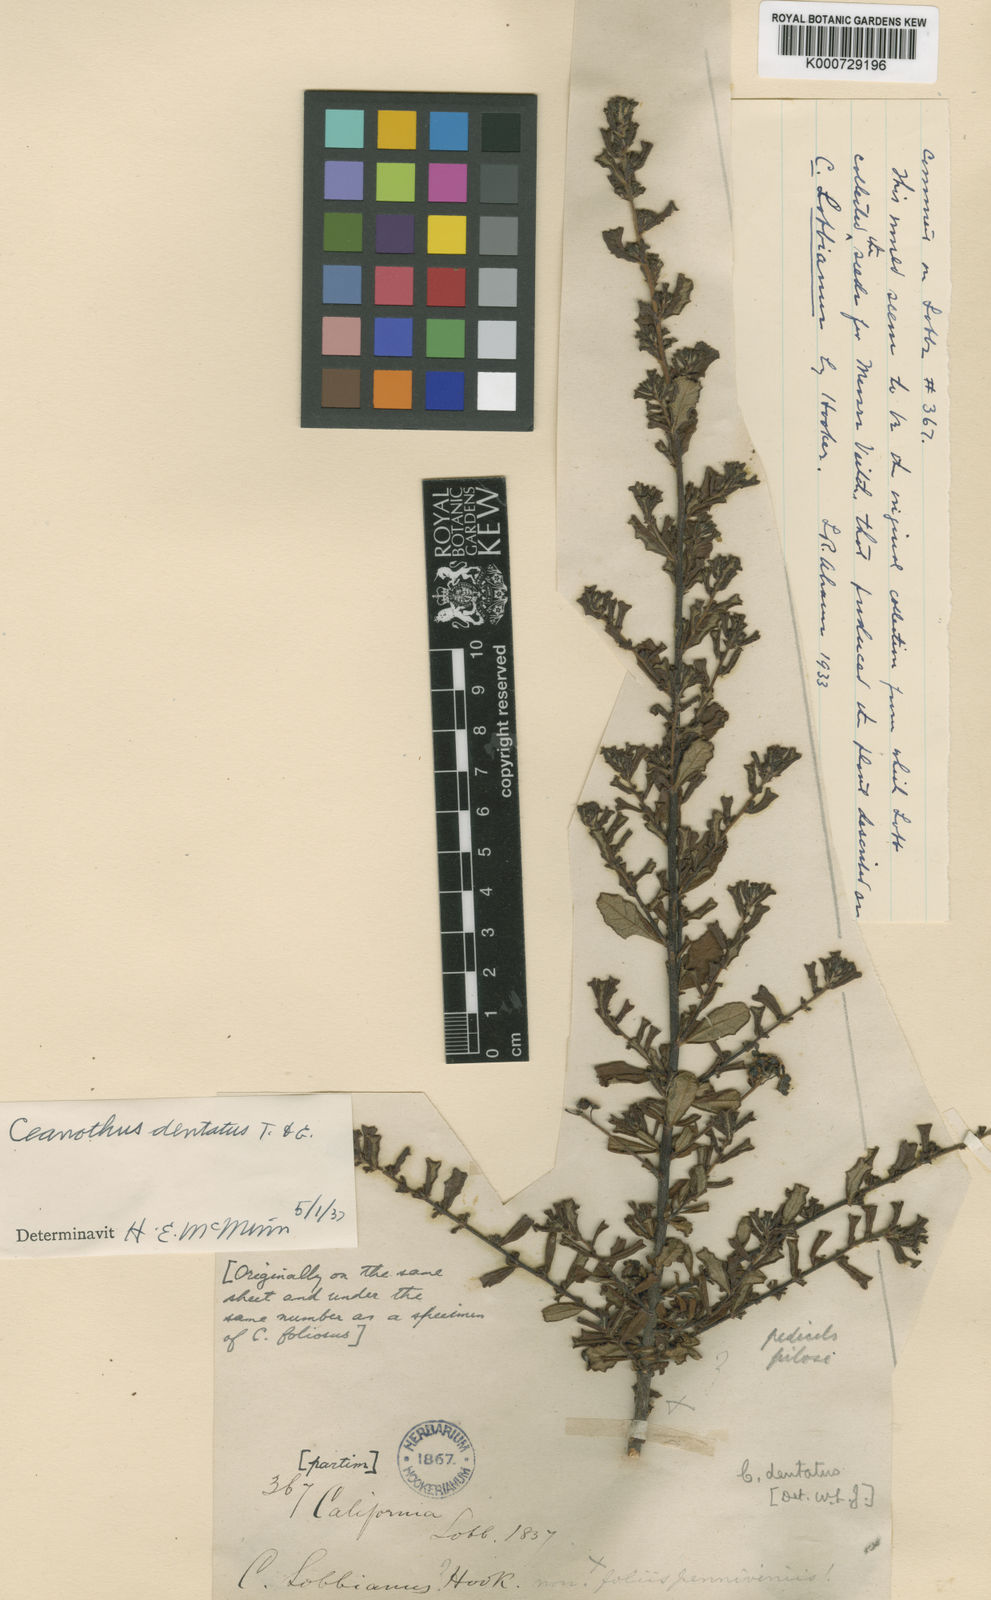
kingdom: Plantae
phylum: Tracheophyta
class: Magnoliopsida
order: Rosales
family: Rhamnaceae
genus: Ceanothus
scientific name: Ceanothus dentatus
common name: Crop-leaf ceanothus
